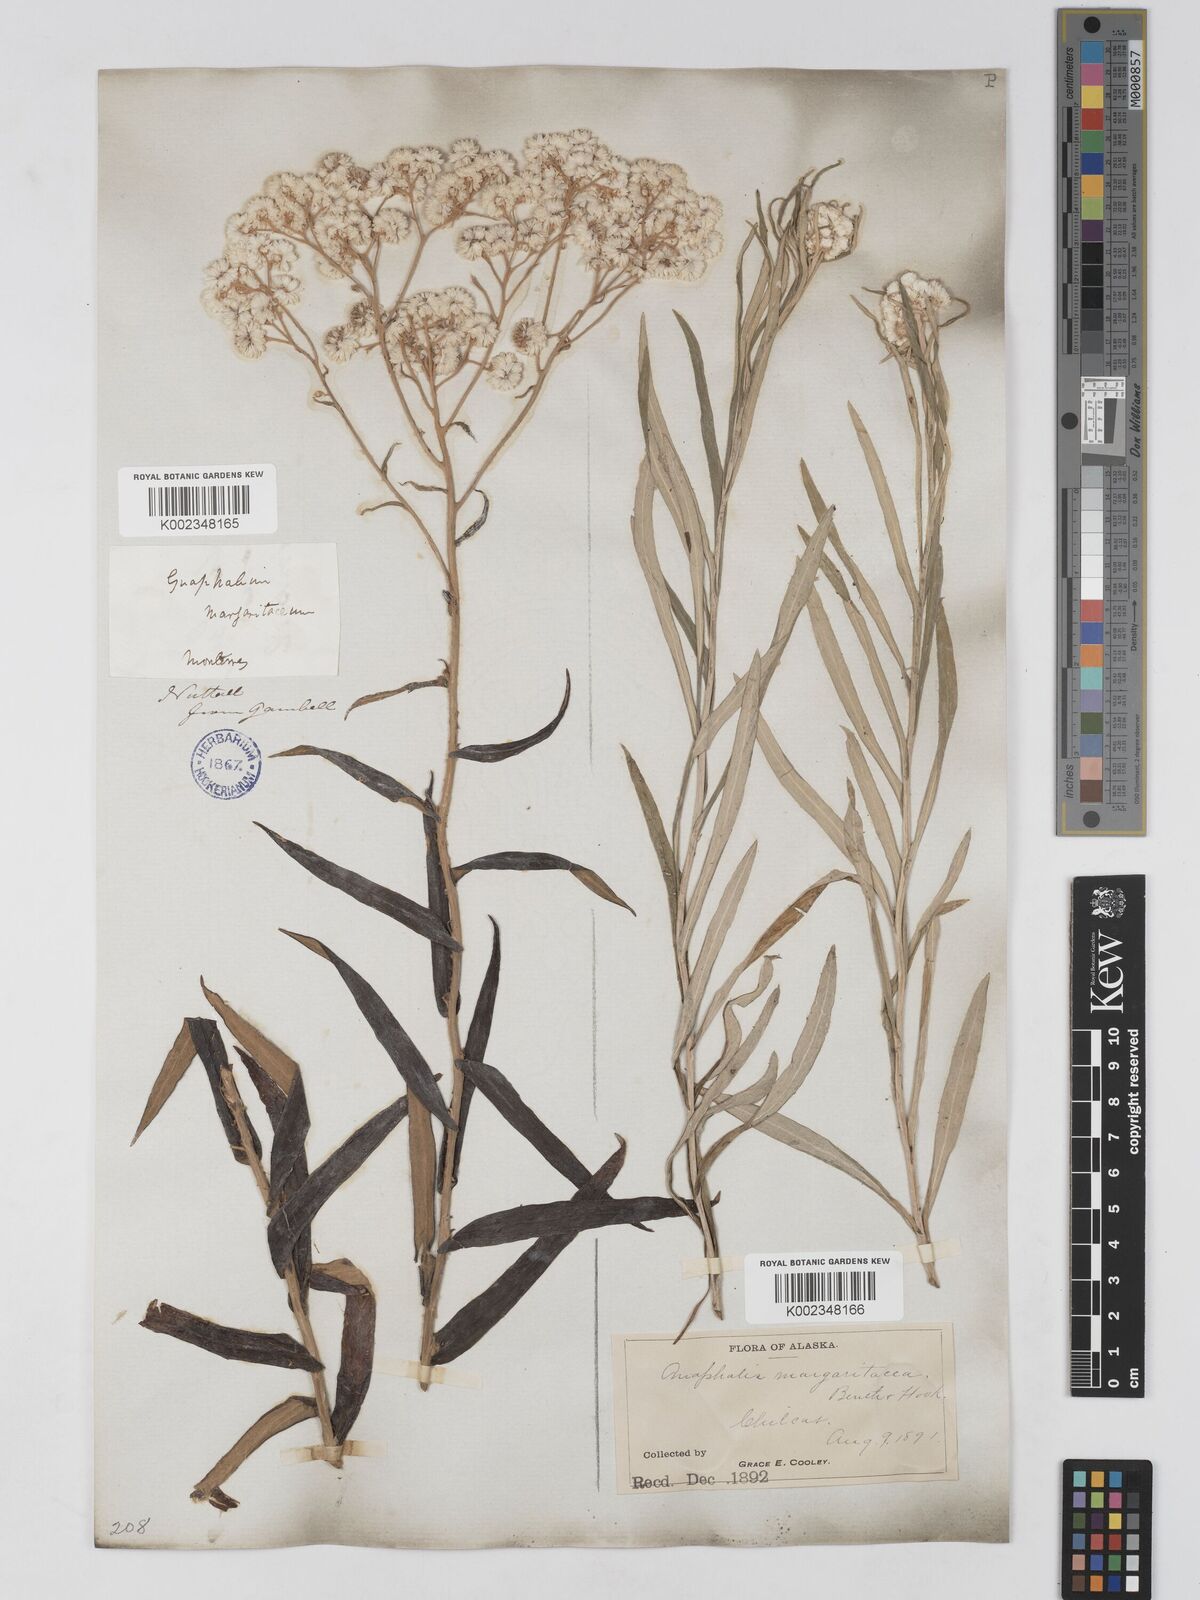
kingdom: Plantae
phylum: Tracheophyta
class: Magnoliopsida
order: Asterales
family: Asteraceae
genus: Anaphalis
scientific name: Anaphalis margaritacea
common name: Pearly everlasting
